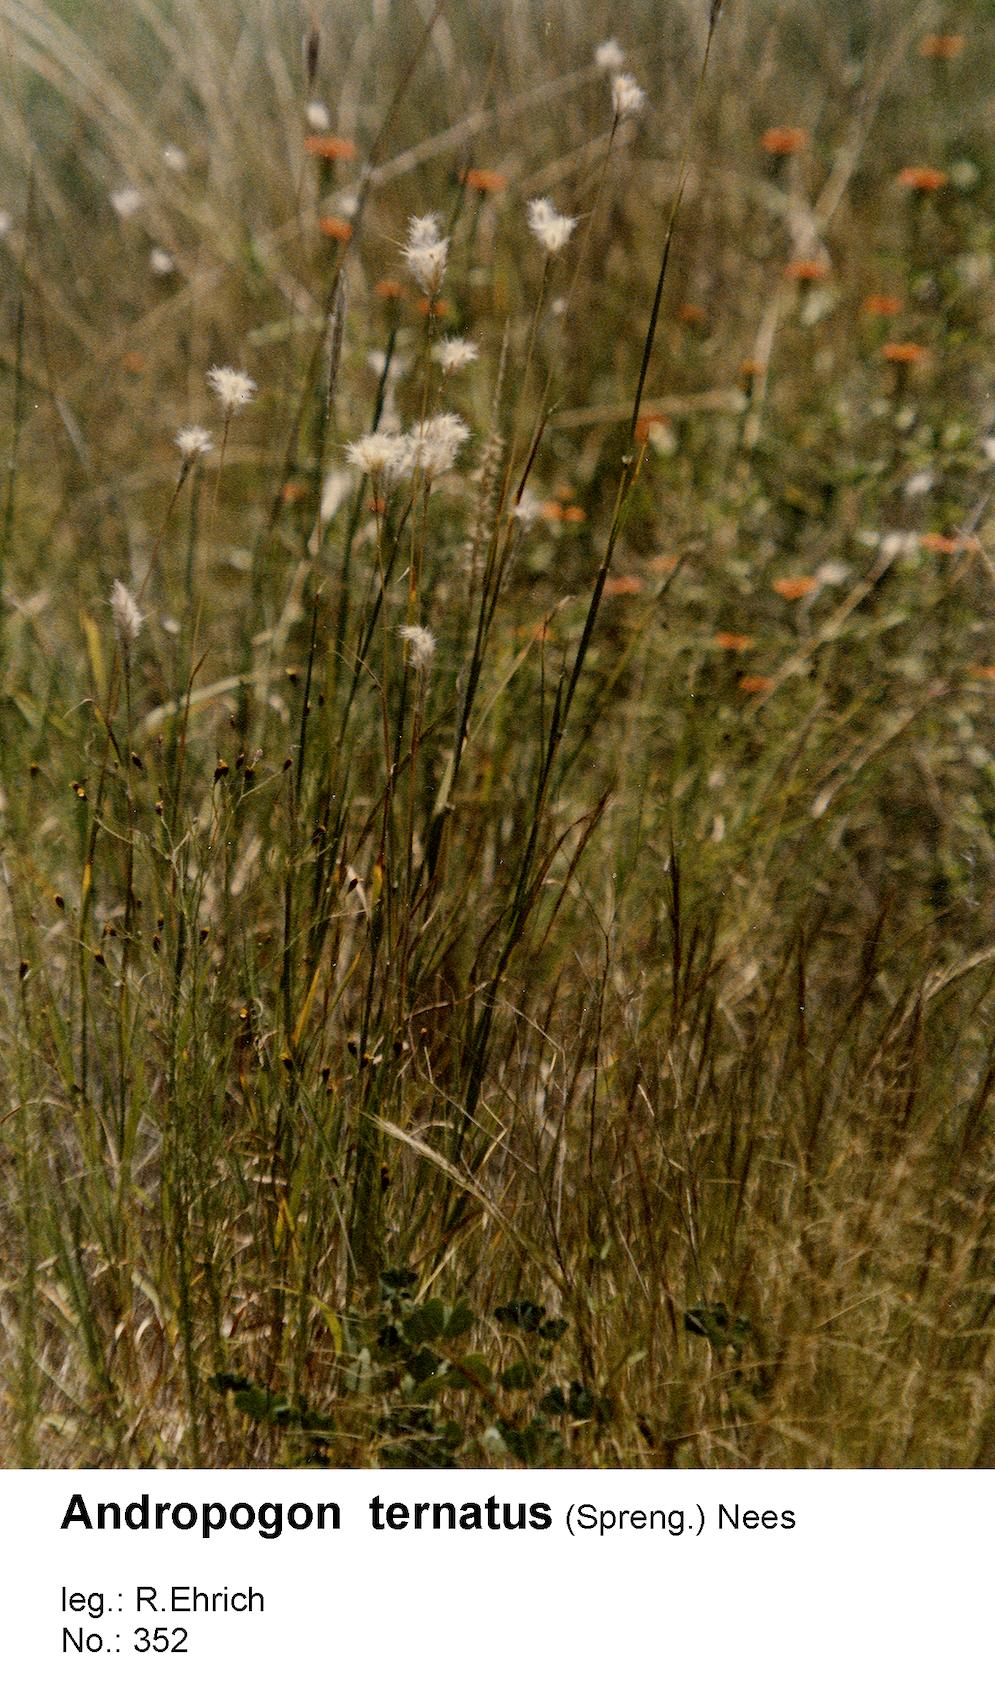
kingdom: Plantae
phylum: Tracheophyta
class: Liliopsida
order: Poales
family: Poaceae
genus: Andropogon
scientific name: Andropogon ternatus
